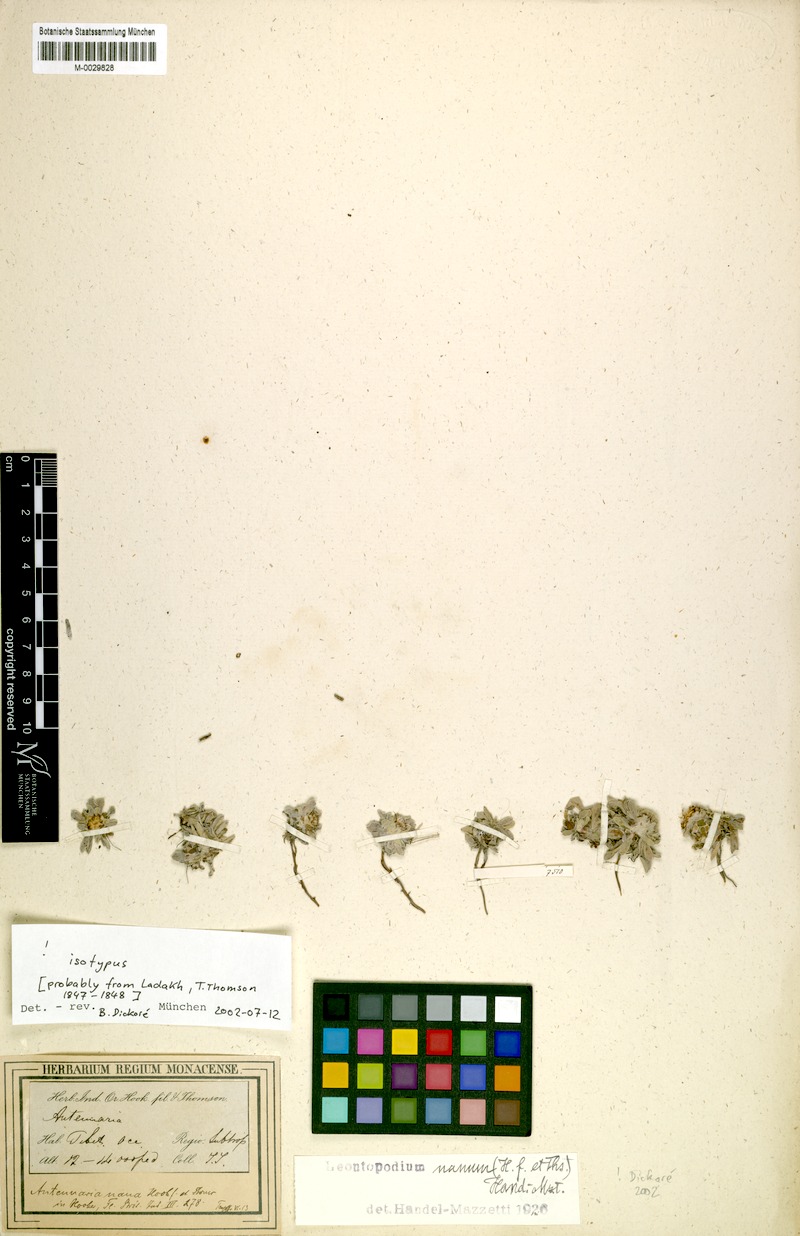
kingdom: Plantae
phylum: Tracheophyta
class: Magnoliopsida
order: Asterales
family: Asteraceae
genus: Leontopodium
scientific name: Leontopodium nanum
